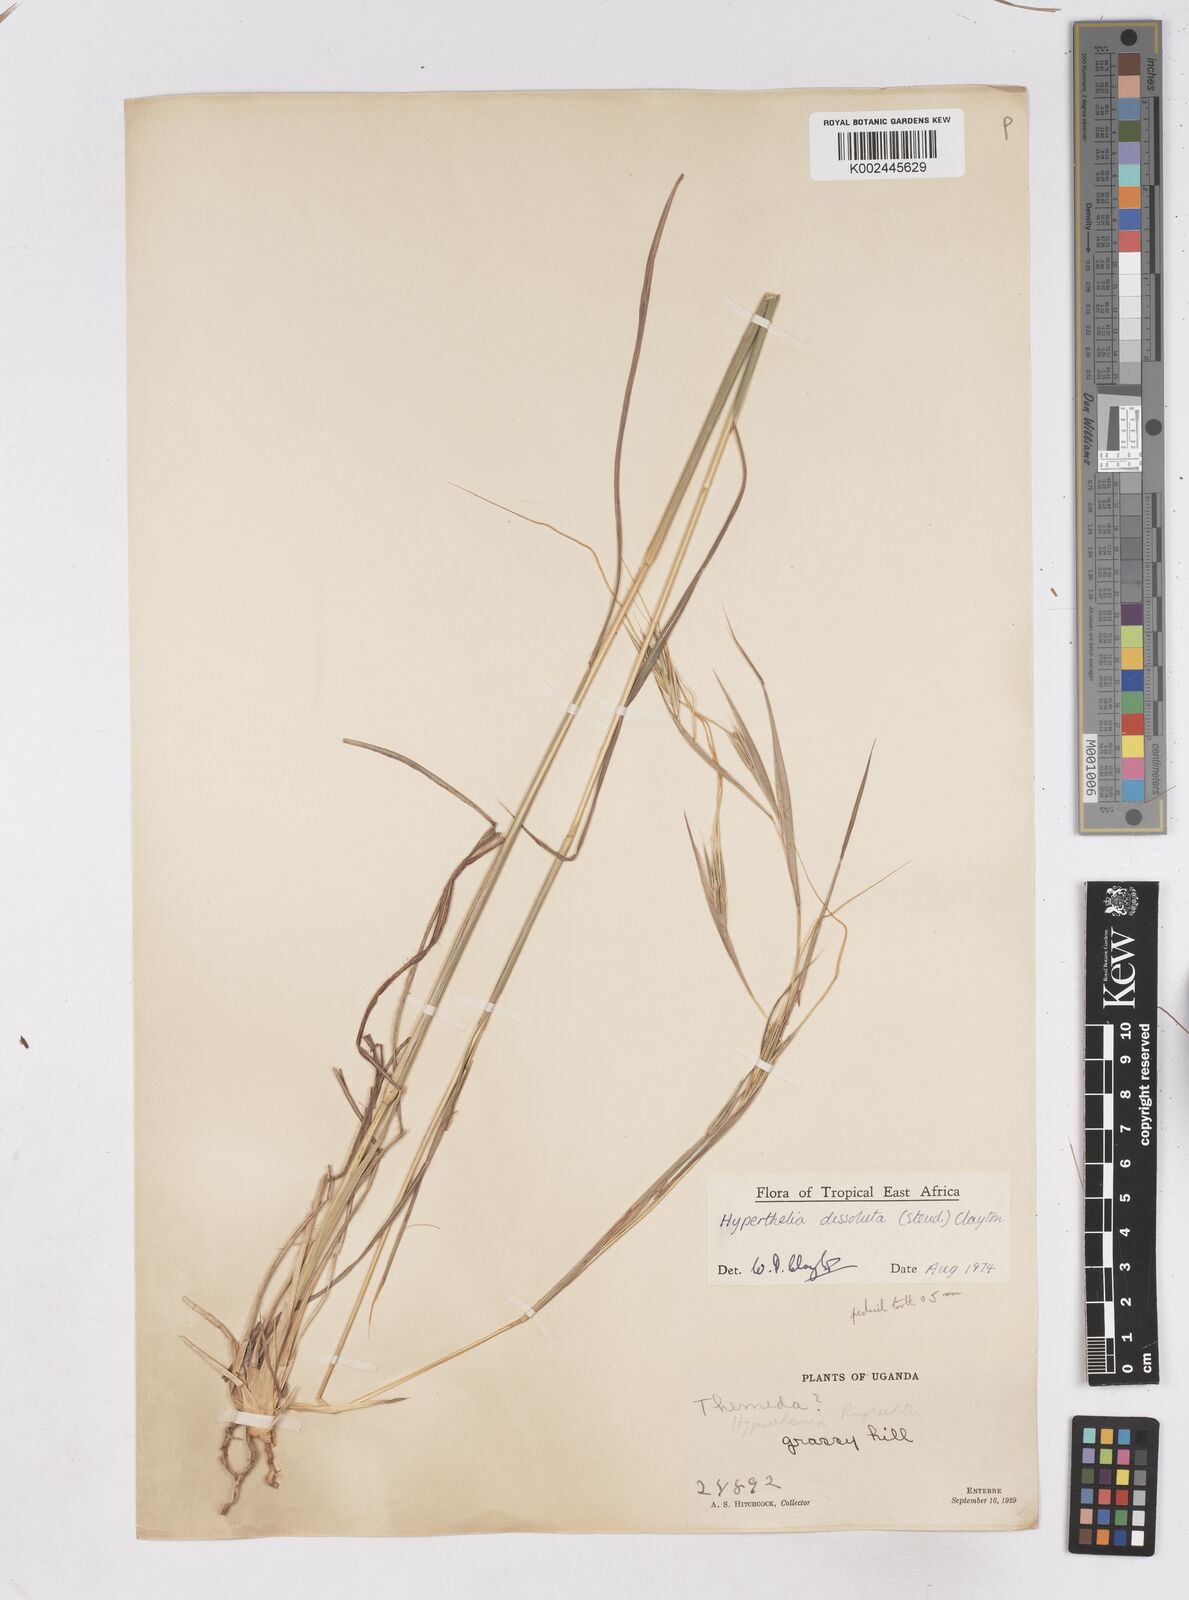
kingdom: Plantae
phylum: Tracheophyta
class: Liliopsida
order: Poales
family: Poaceae
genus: Hyperthelia
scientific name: Hyperthelia dissoluta
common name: Yellow thatching grass
